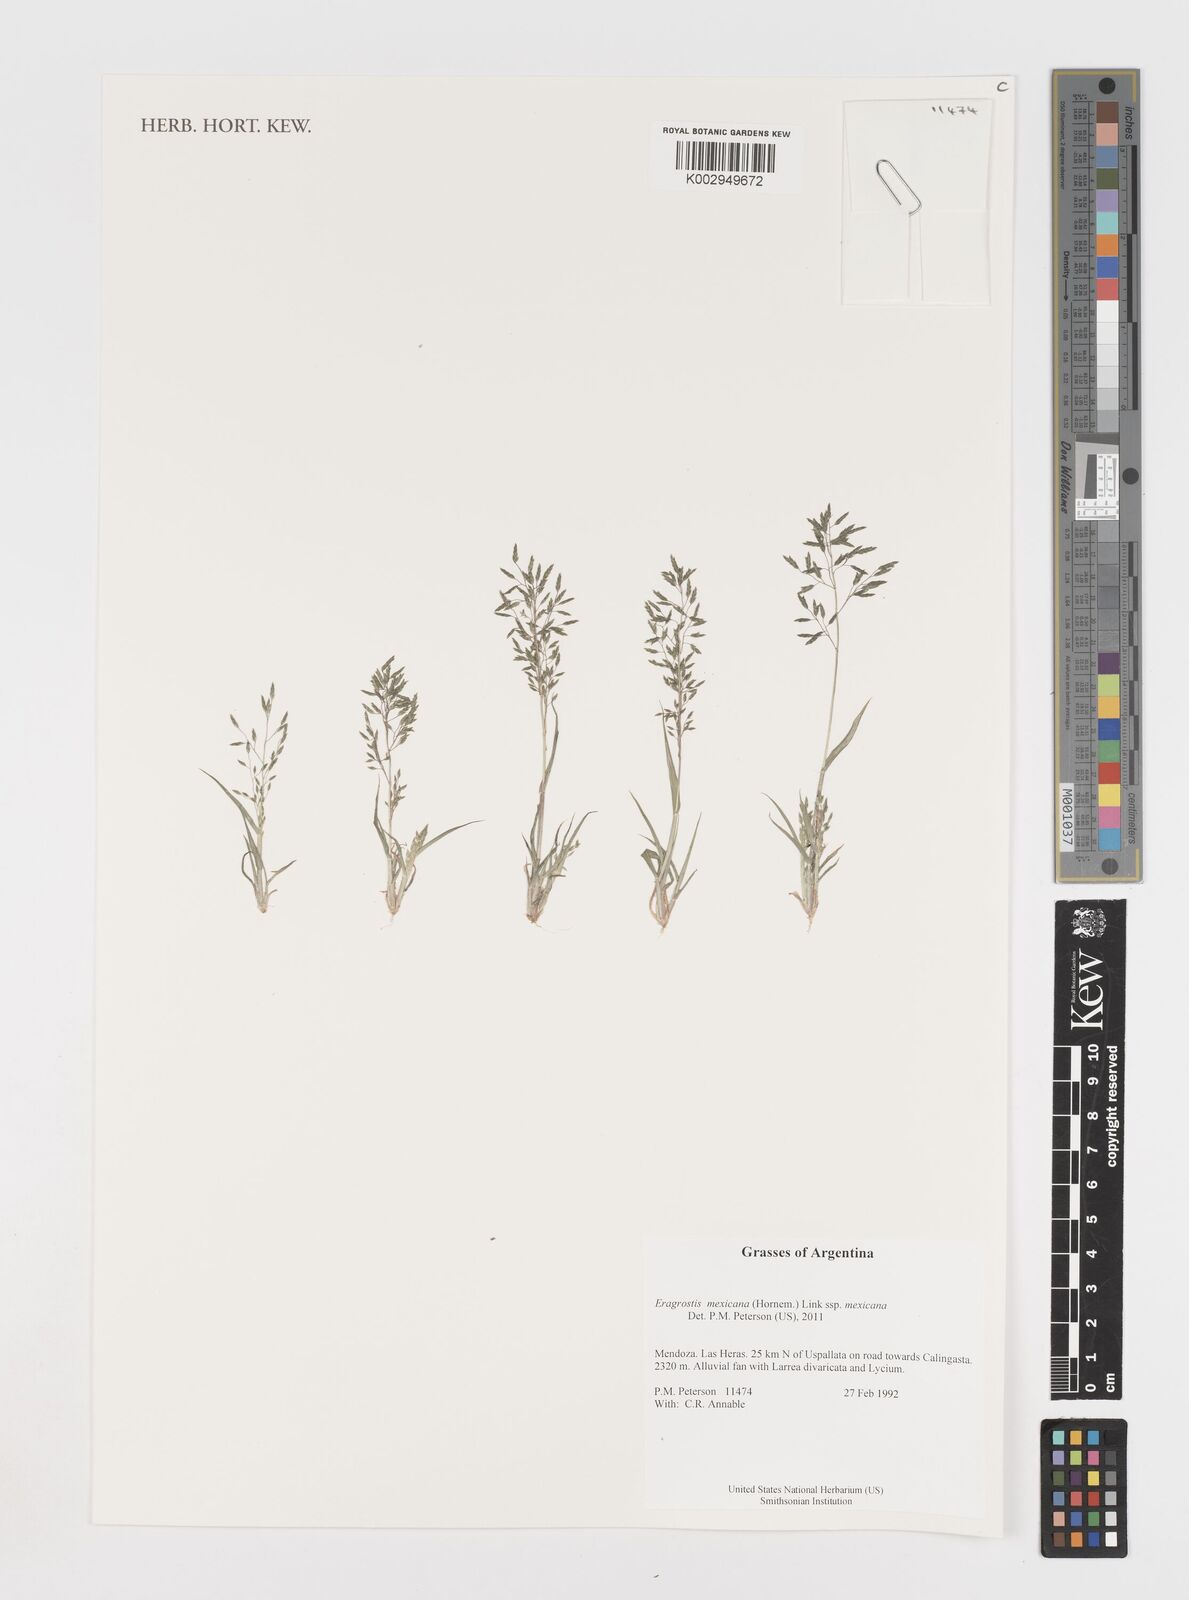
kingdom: Plantae
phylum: Tracheophyta
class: Liliopsida
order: Poales
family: Poaceae
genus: Eragrostis
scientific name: Eragrostis mexicana
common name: Mexican love grass
